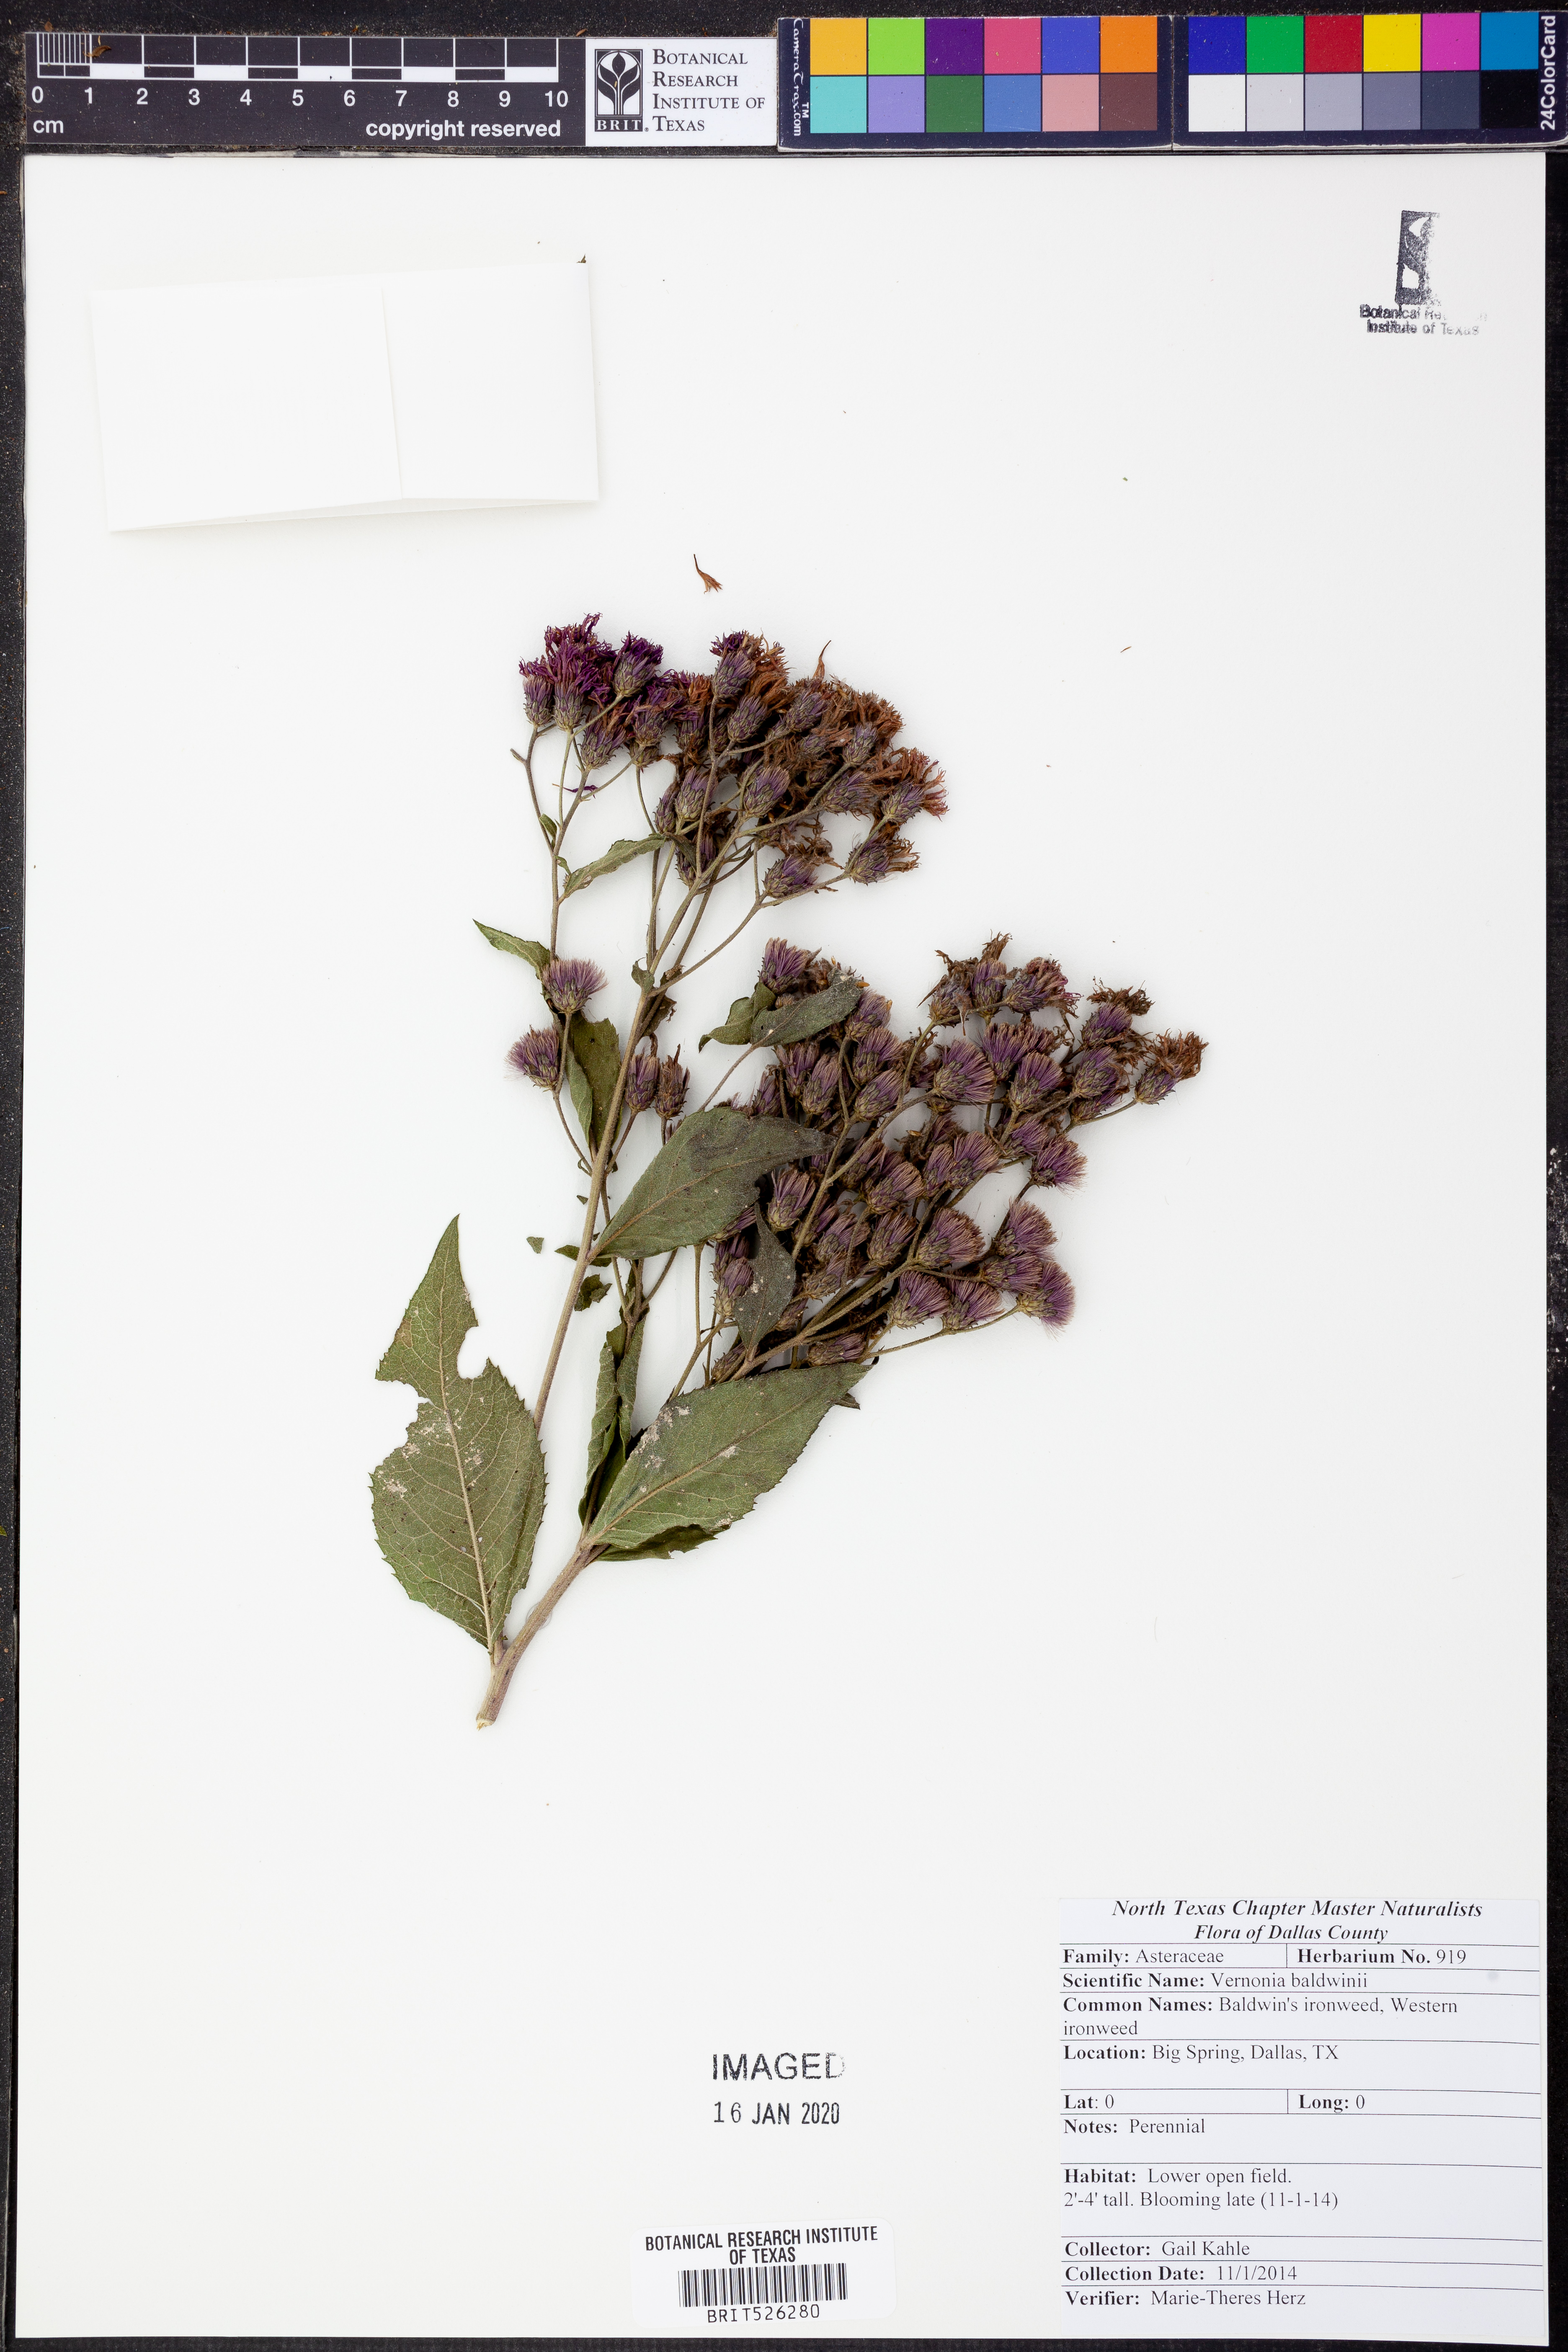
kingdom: Plantae
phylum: Tracheophyta
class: Magnoliopsida
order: Asterales
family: Asteraceae
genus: Vernonia
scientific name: Vernonia baldwinii
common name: Western ironweed
